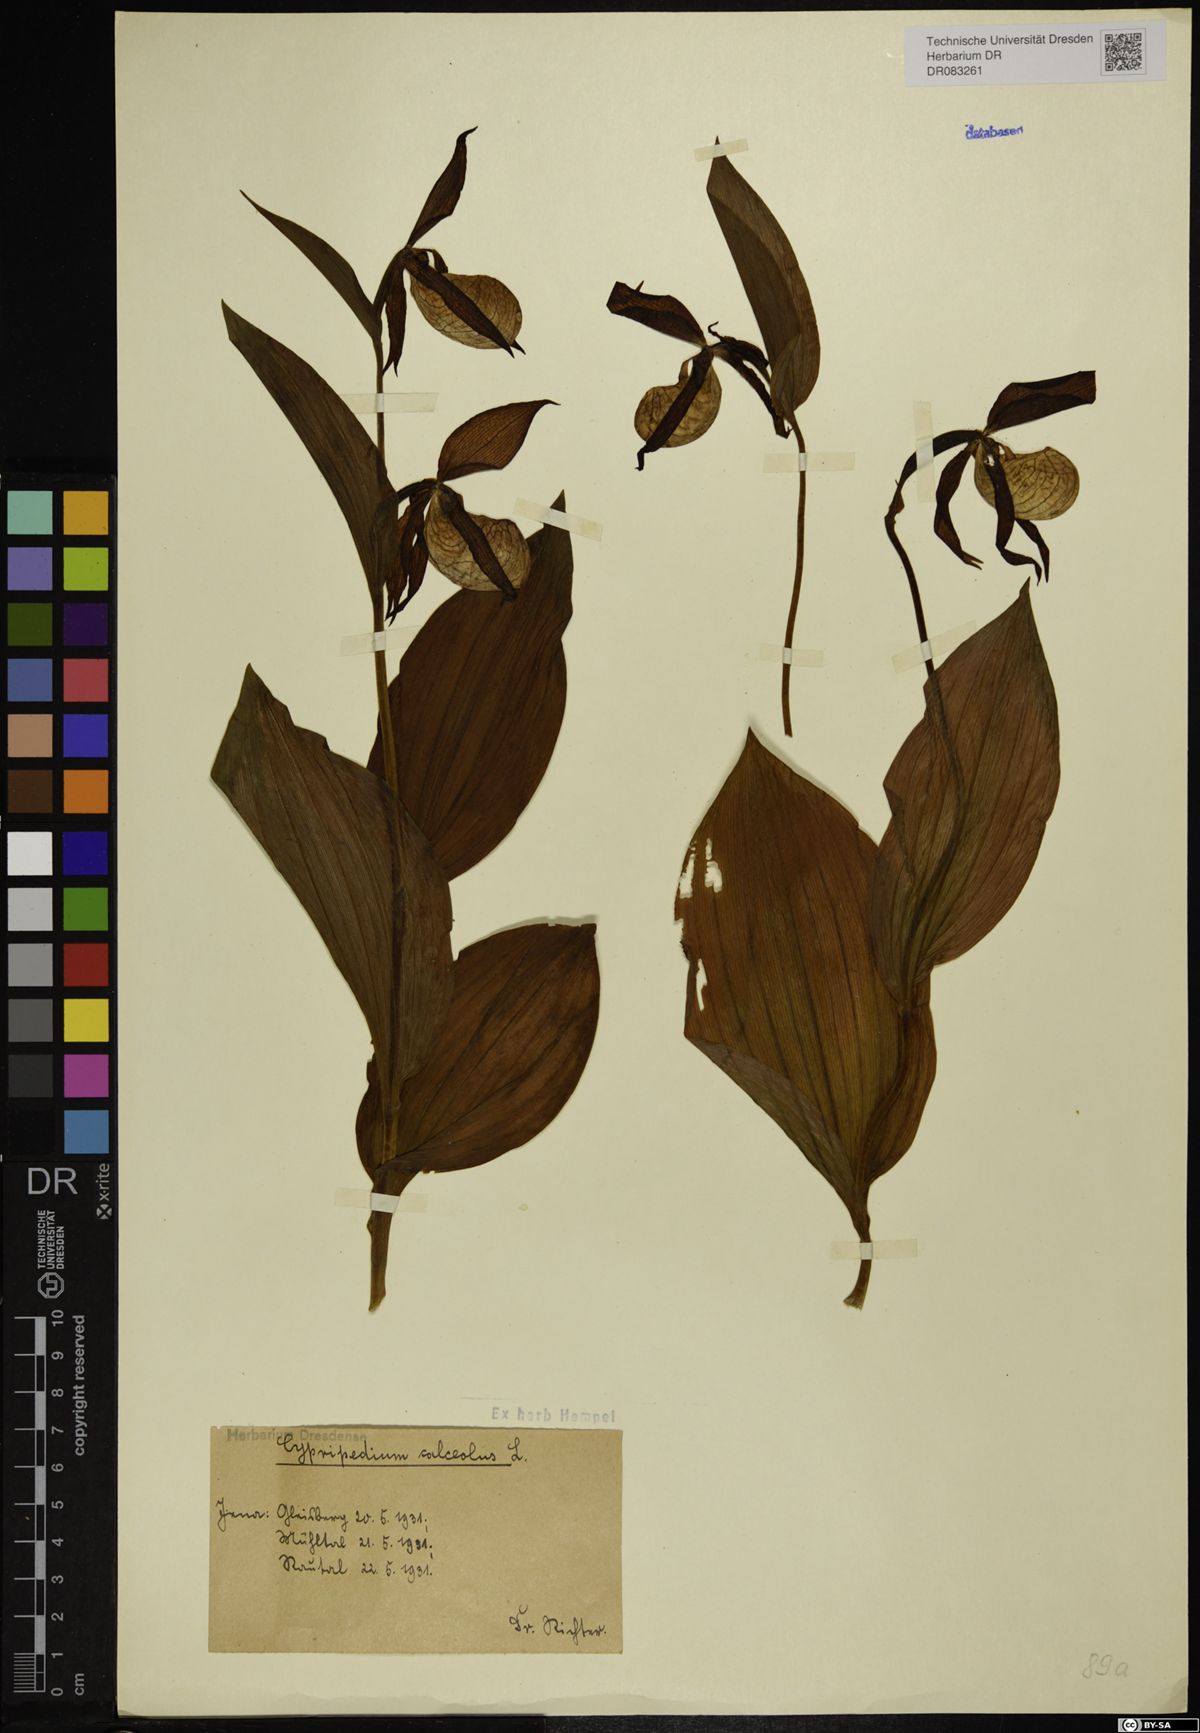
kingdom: Plantae
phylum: Tracheophyta
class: Liliopsida
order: Asparagales
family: Orchidaceae
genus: Cypripedium
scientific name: Cypripedium calceolus
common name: Lady's-slipper
